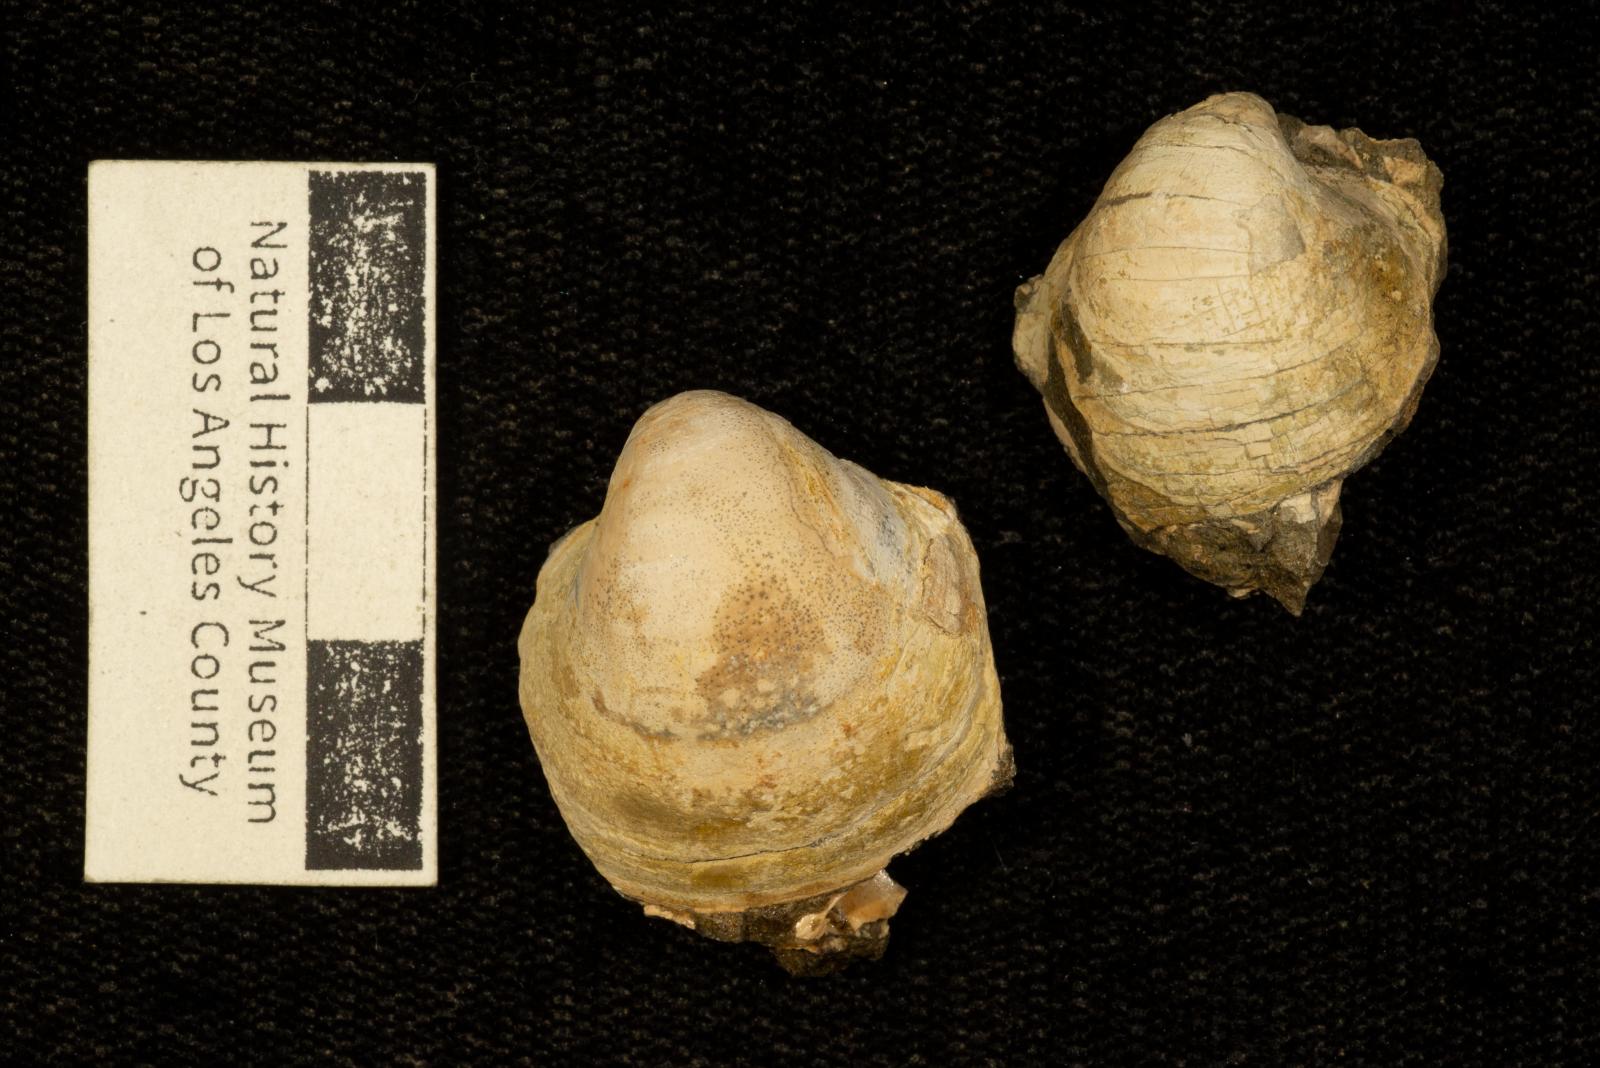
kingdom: Animalia
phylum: Mollusca
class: Bivalvia
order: Adapedonta
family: Edmondiidae
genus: Clisocolus
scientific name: Clisocolus dubius
